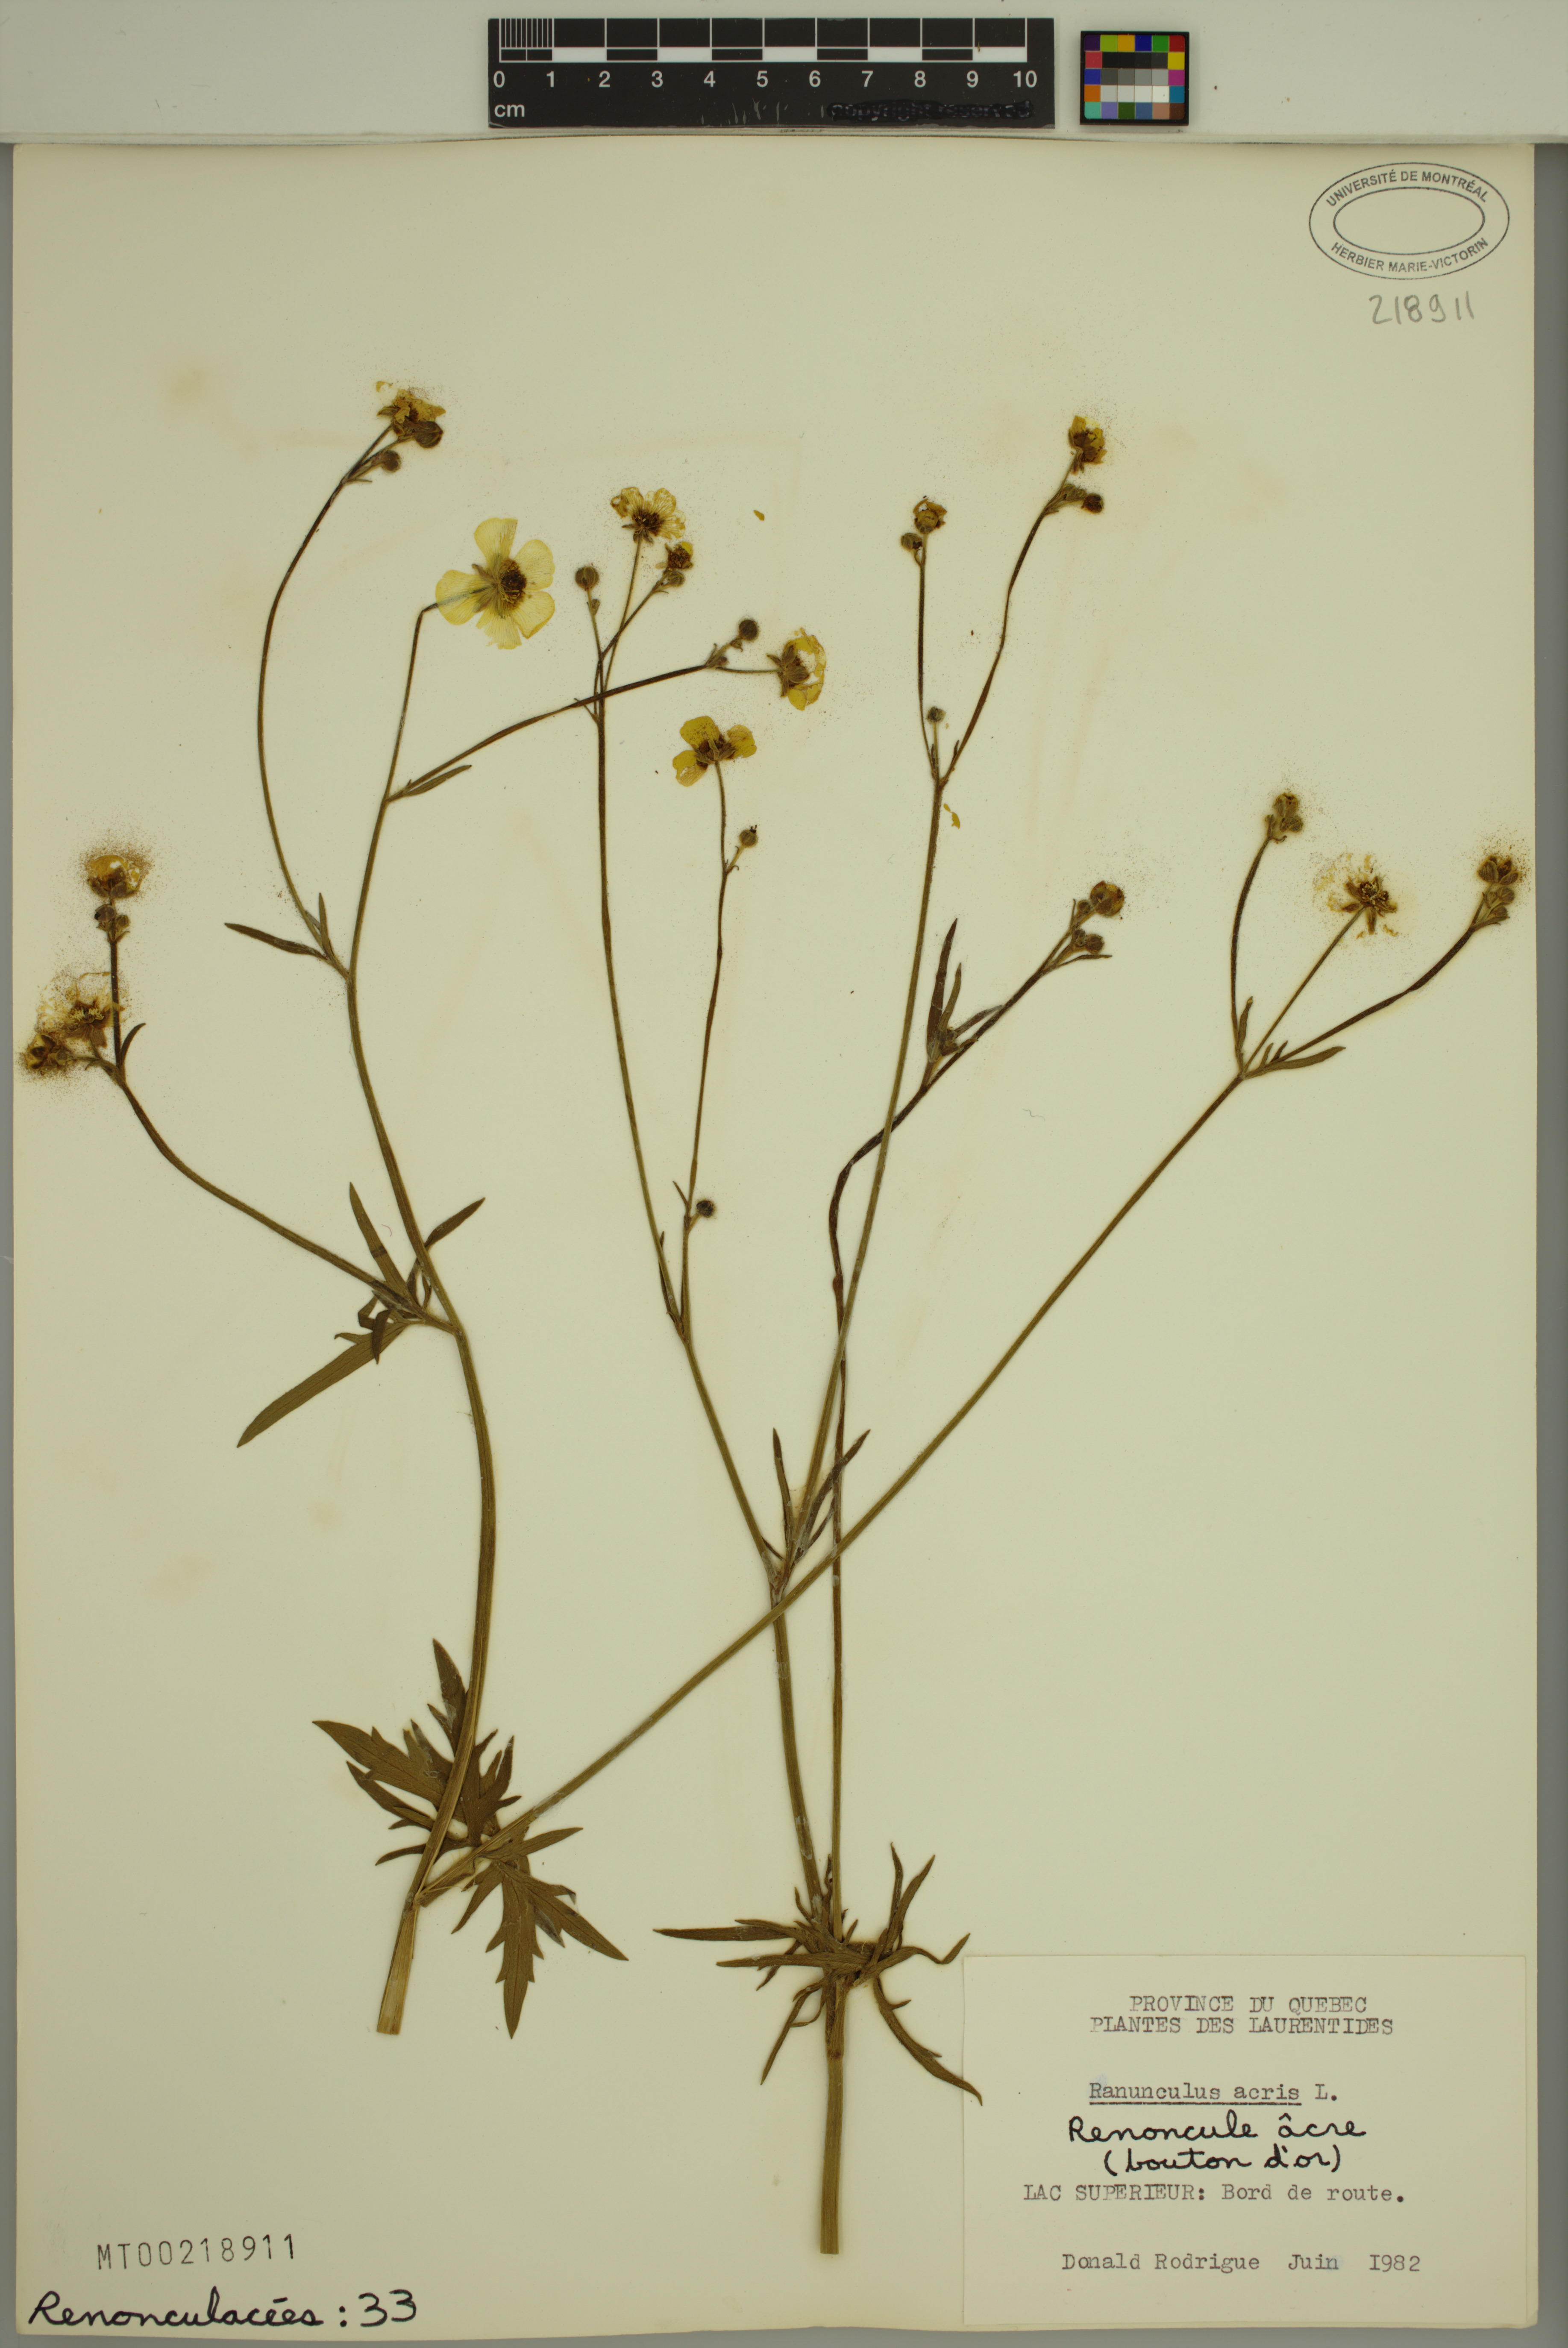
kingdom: Plantae
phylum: Tracheophyta
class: Magnoliopsida
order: Ranunculales
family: Ranunculaceae
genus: Ranunculus
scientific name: Ranunculus acris
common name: Meadow buttercup
